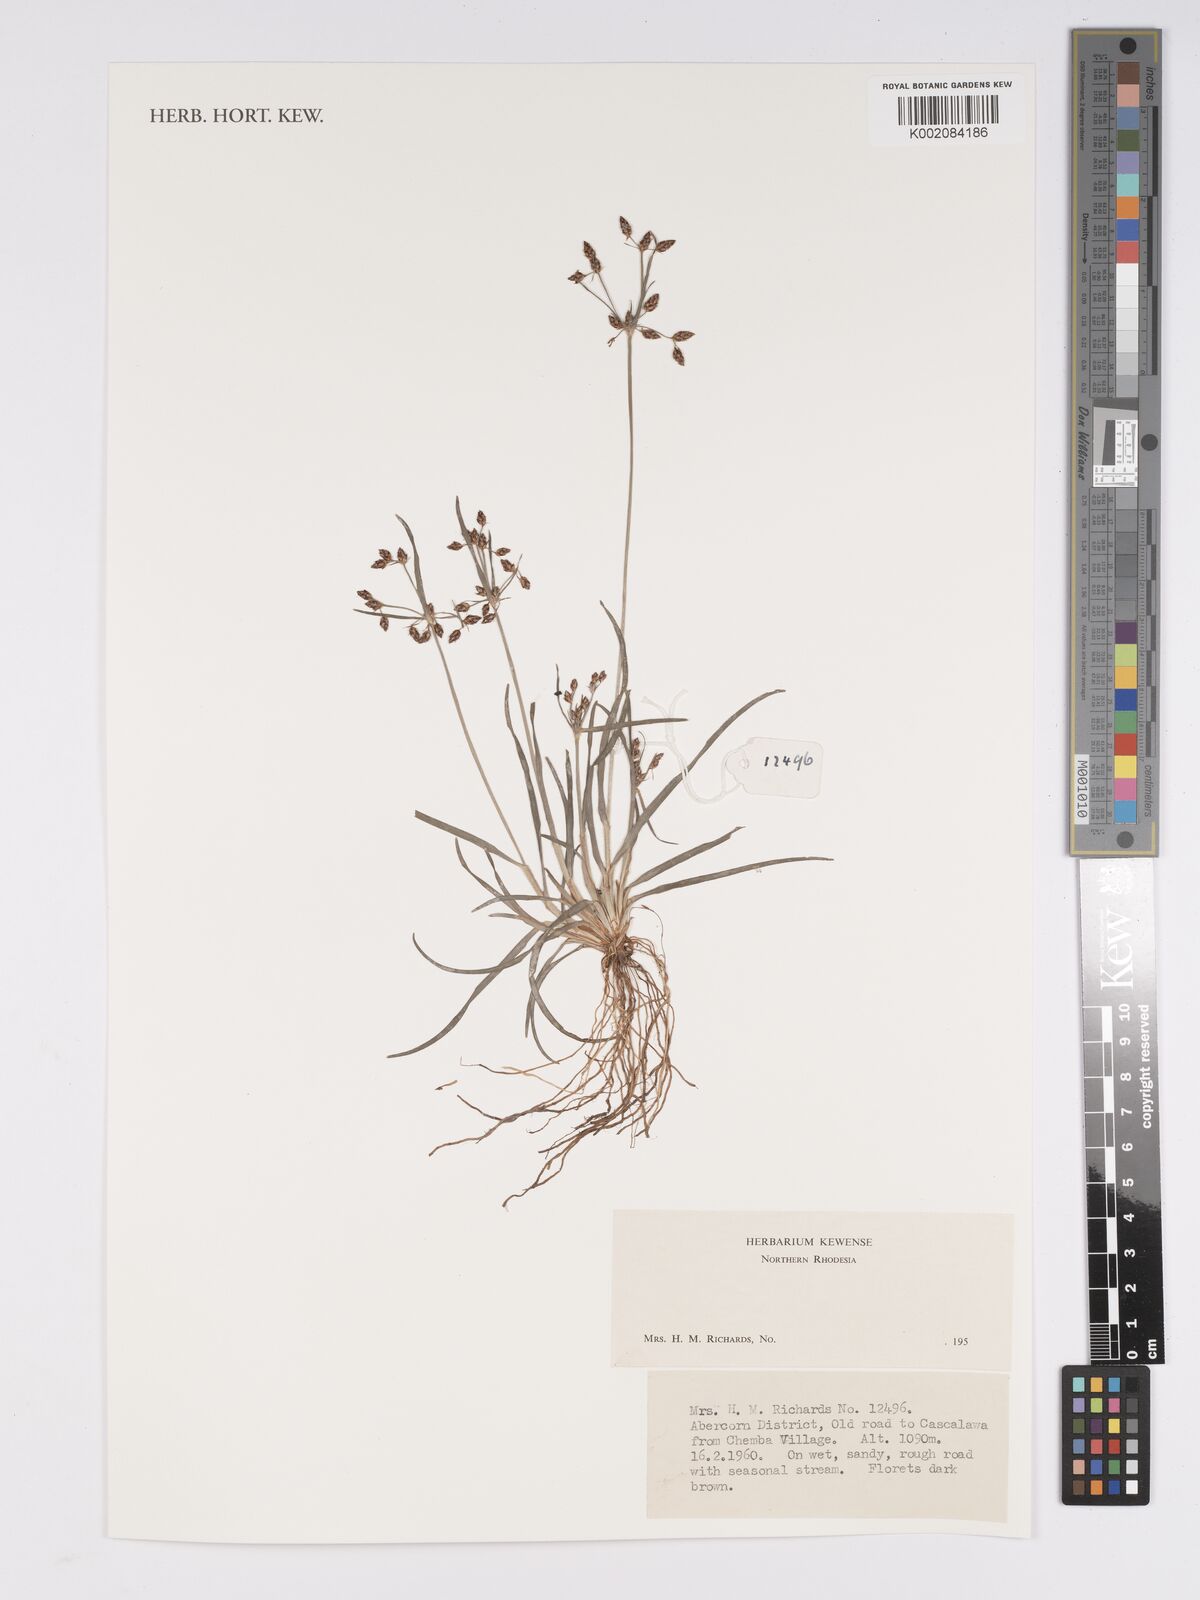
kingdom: Plantae
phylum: Tracheophyta
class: Liliopsida
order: Poales
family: Cyperaceae
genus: Bulbostylis
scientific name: Bulbostylis
